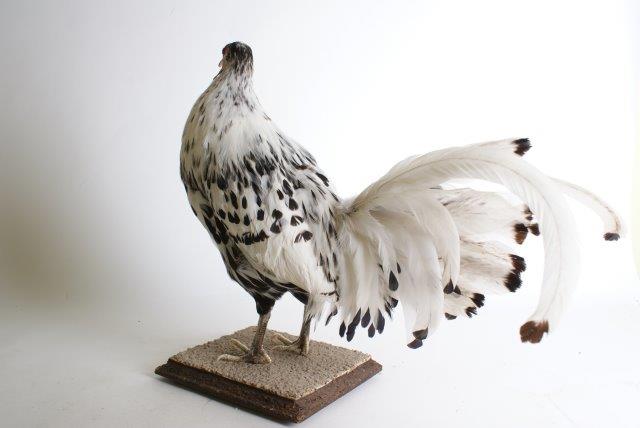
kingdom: Animalia
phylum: Chordata
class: Aves
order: Galliformes
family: Phasianidae
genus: Gallus
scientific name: Gallus gallus
